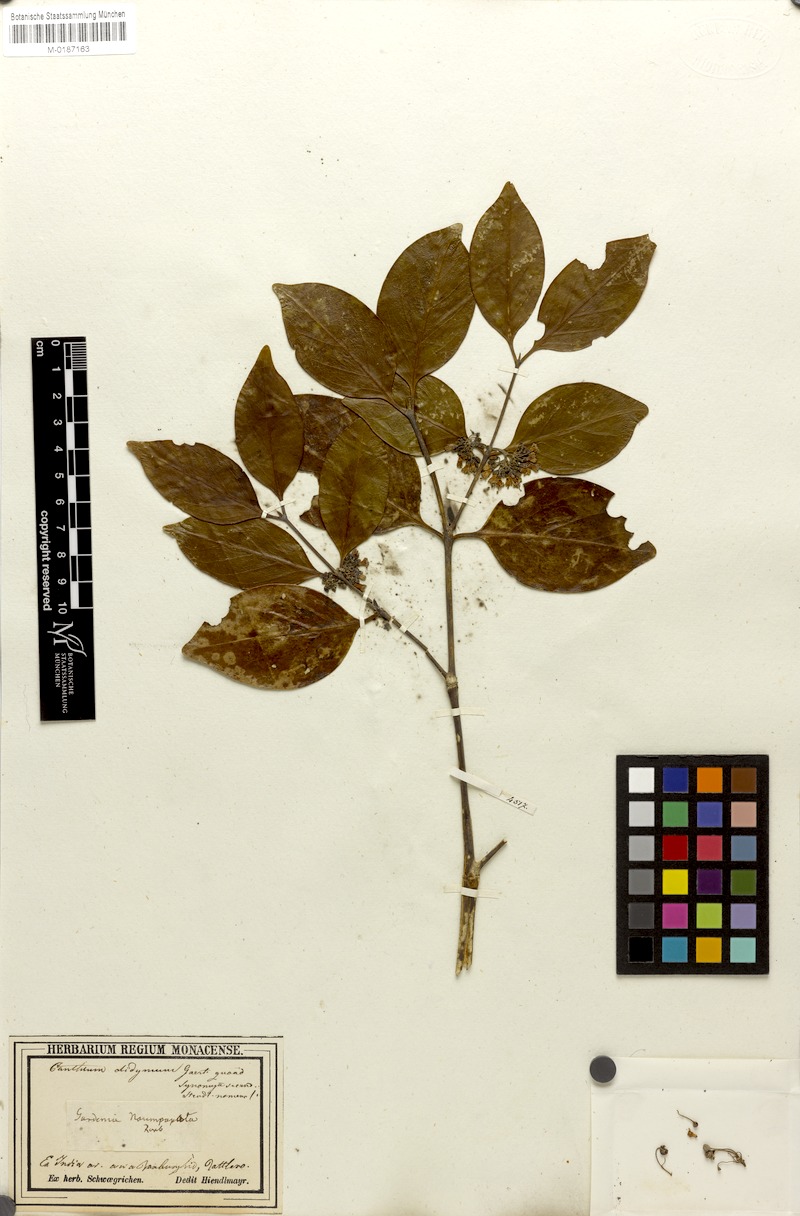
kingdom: Plantae
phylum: Tracheophyta
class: Magnoliopsida
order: Gentianales
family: Rubiaceae
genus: Psydrax
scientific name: Psydrax dicoccos
